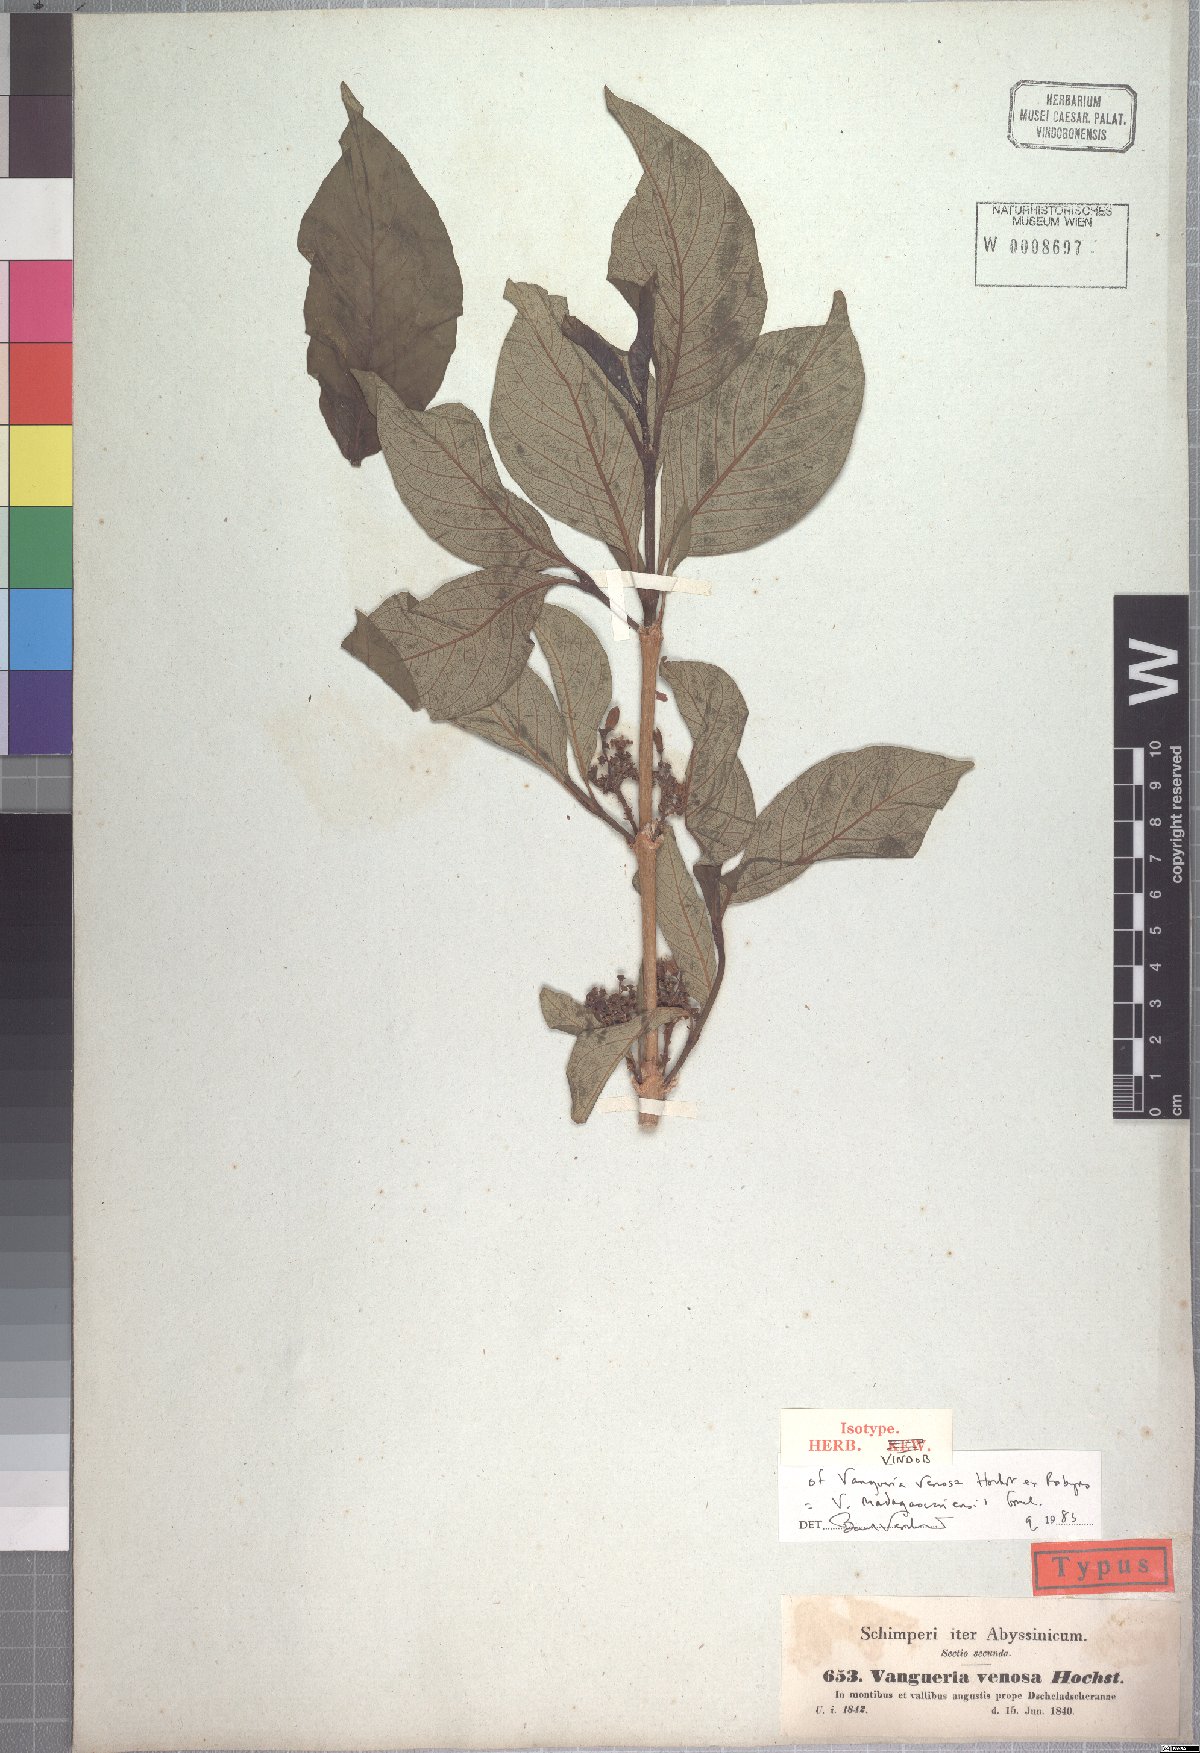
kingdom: Plantae
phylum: Tracheophyta
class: Magnoliopsida
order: Gentianales
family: Rubiaceae
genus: Vangueria
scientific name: Vangueria madagascariensis
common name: Smooth wild-medlar
